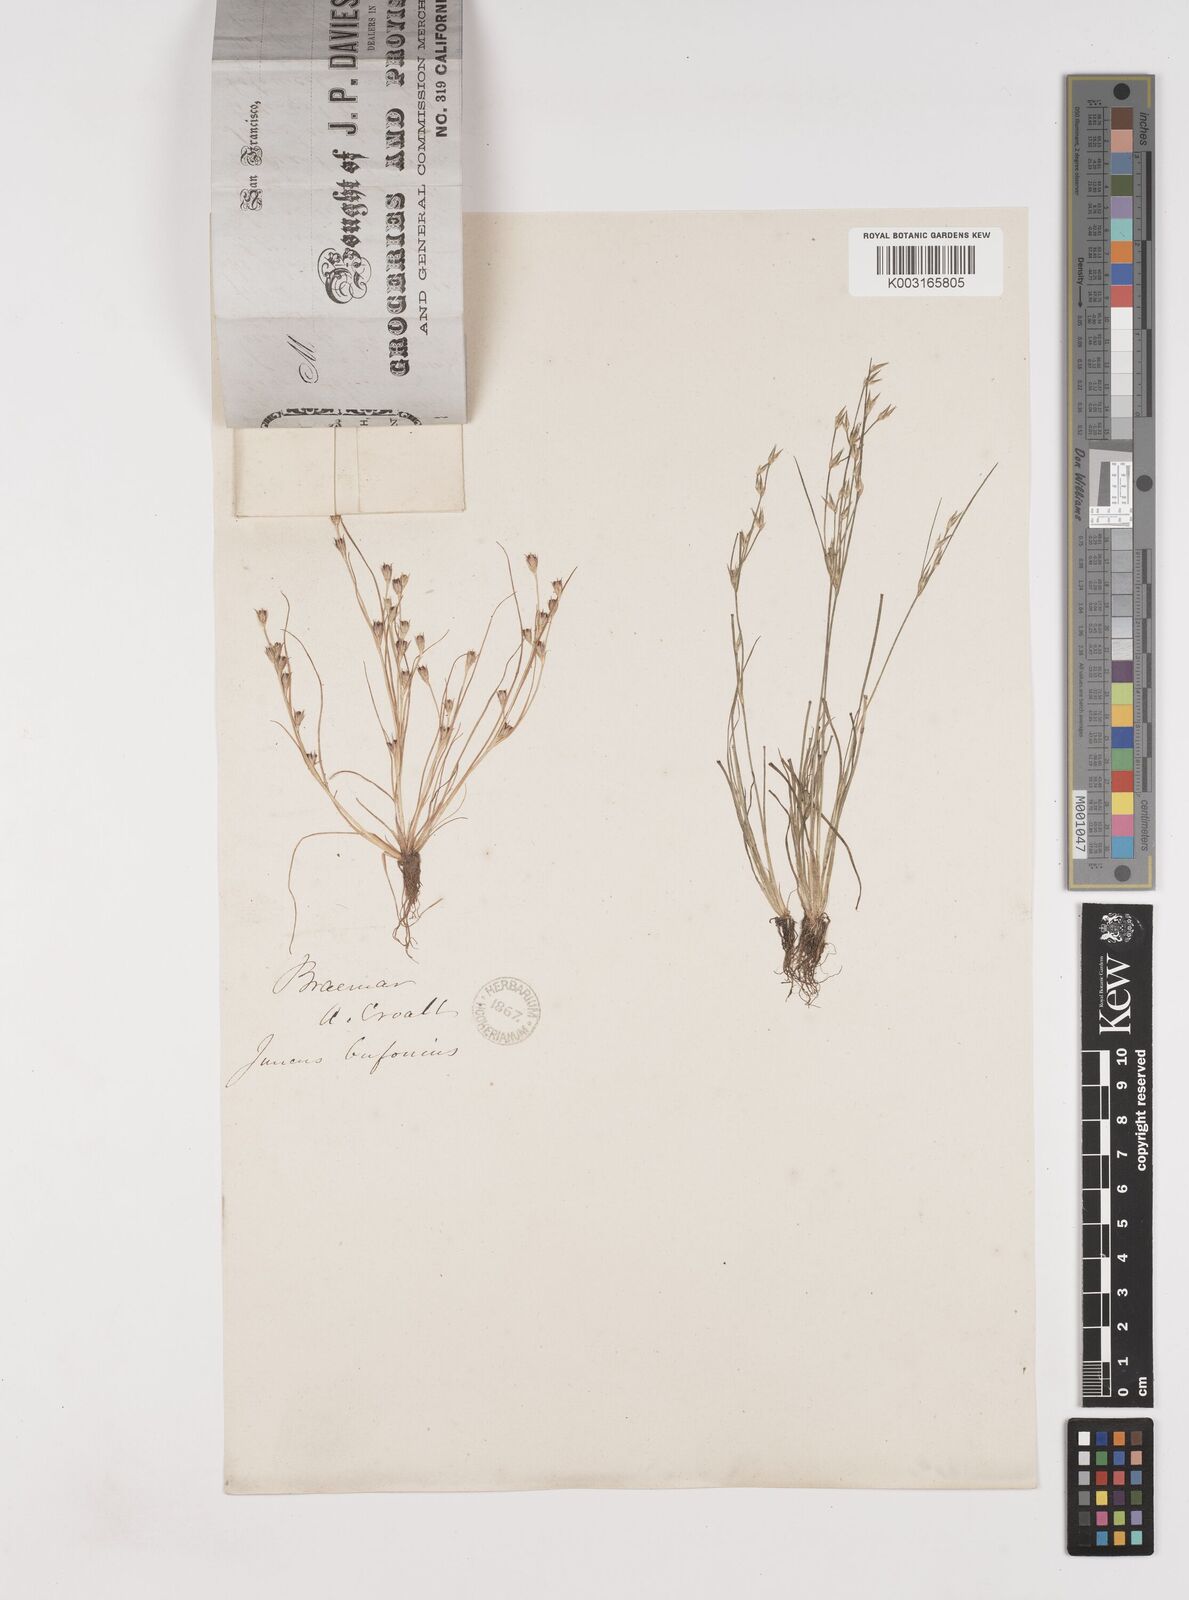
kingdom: Plantae
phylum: Tracheophyta
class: Liliopsida
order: Poales
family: Juncaceae
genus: Juncus
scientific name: Juncus bufonius
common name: Toad rush
